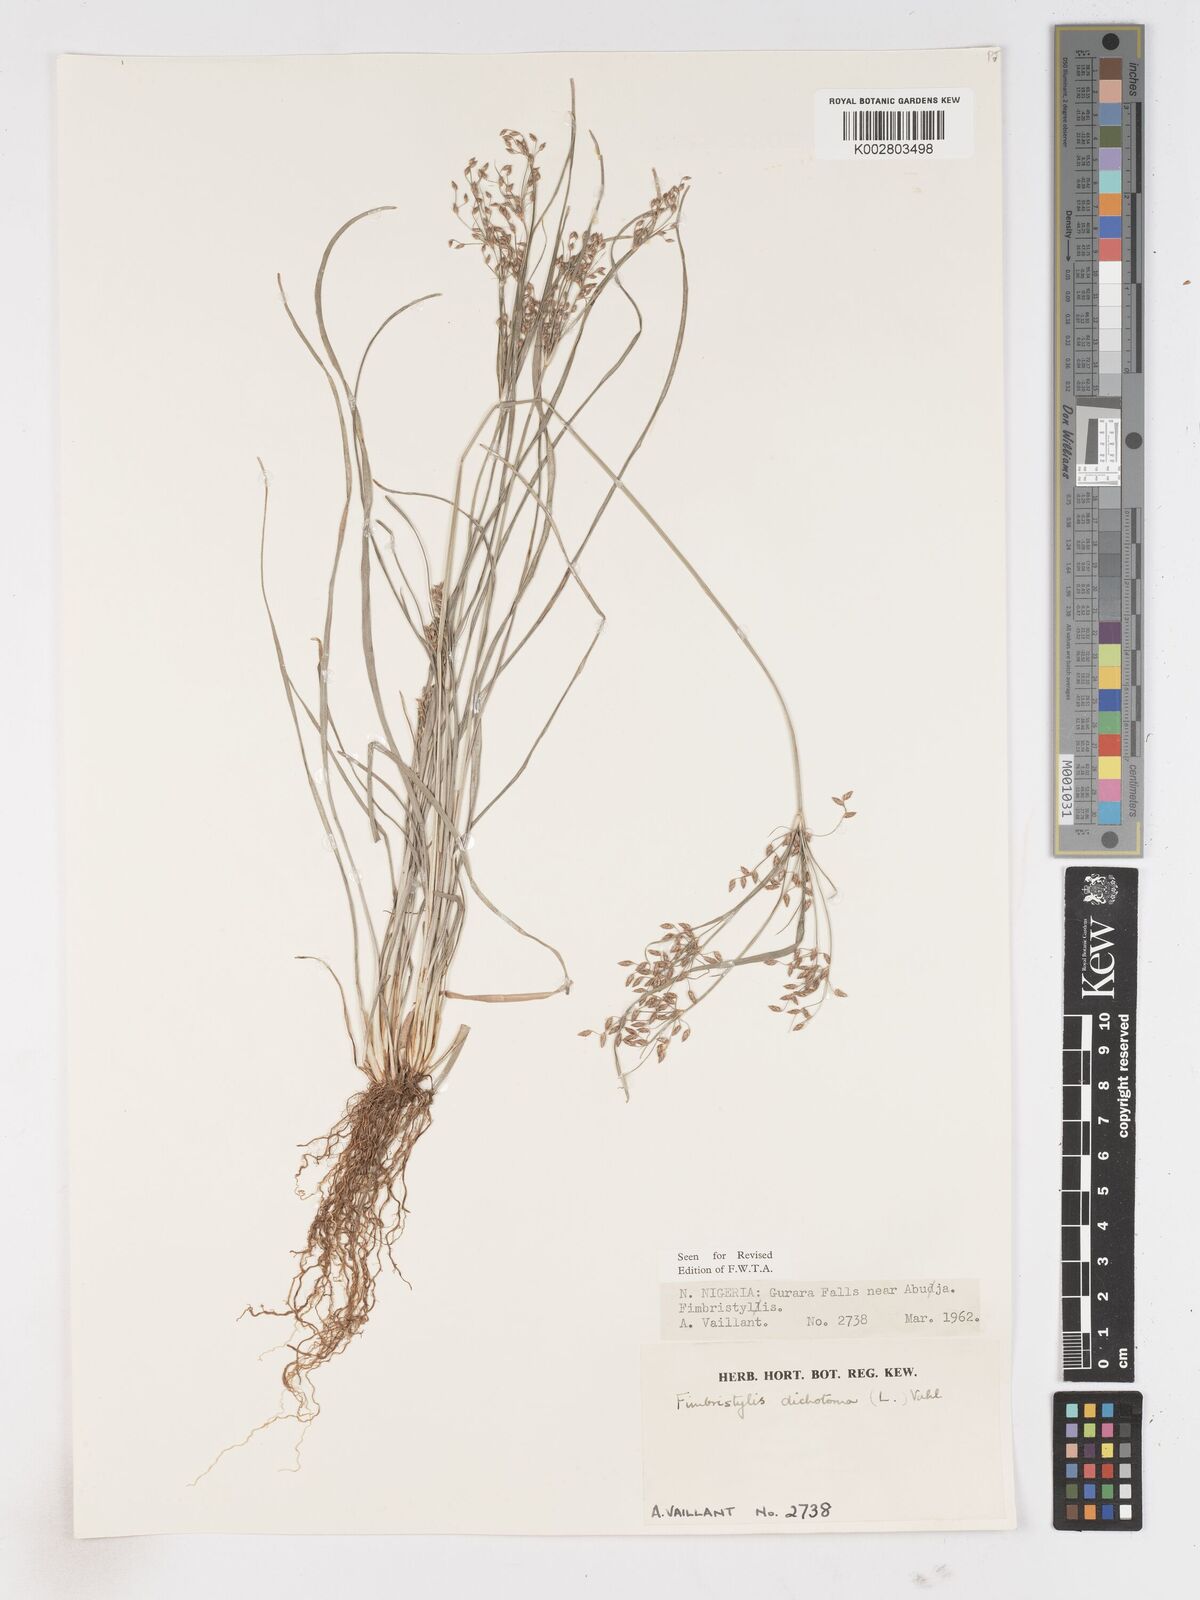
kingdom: Plantae
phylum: Tracheophyta
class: Liliopsida
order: Poales
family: Cyperaceae
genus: Fimbristylis
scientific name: Fimbristylis dichotoma
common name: Forked fimbry
